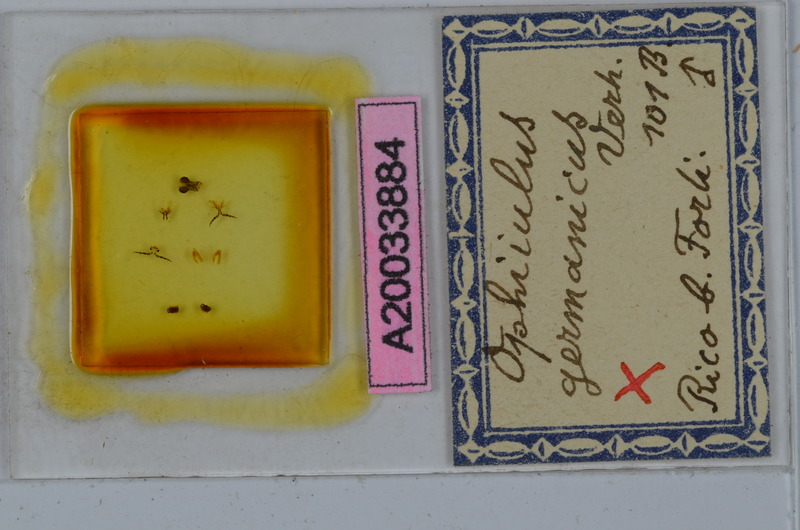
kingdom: Animalia
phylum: Arthropoda
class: Diplopoda
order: Julida
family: Julidae
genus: Ophyiulus
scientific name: Ophyiulus germanicus
